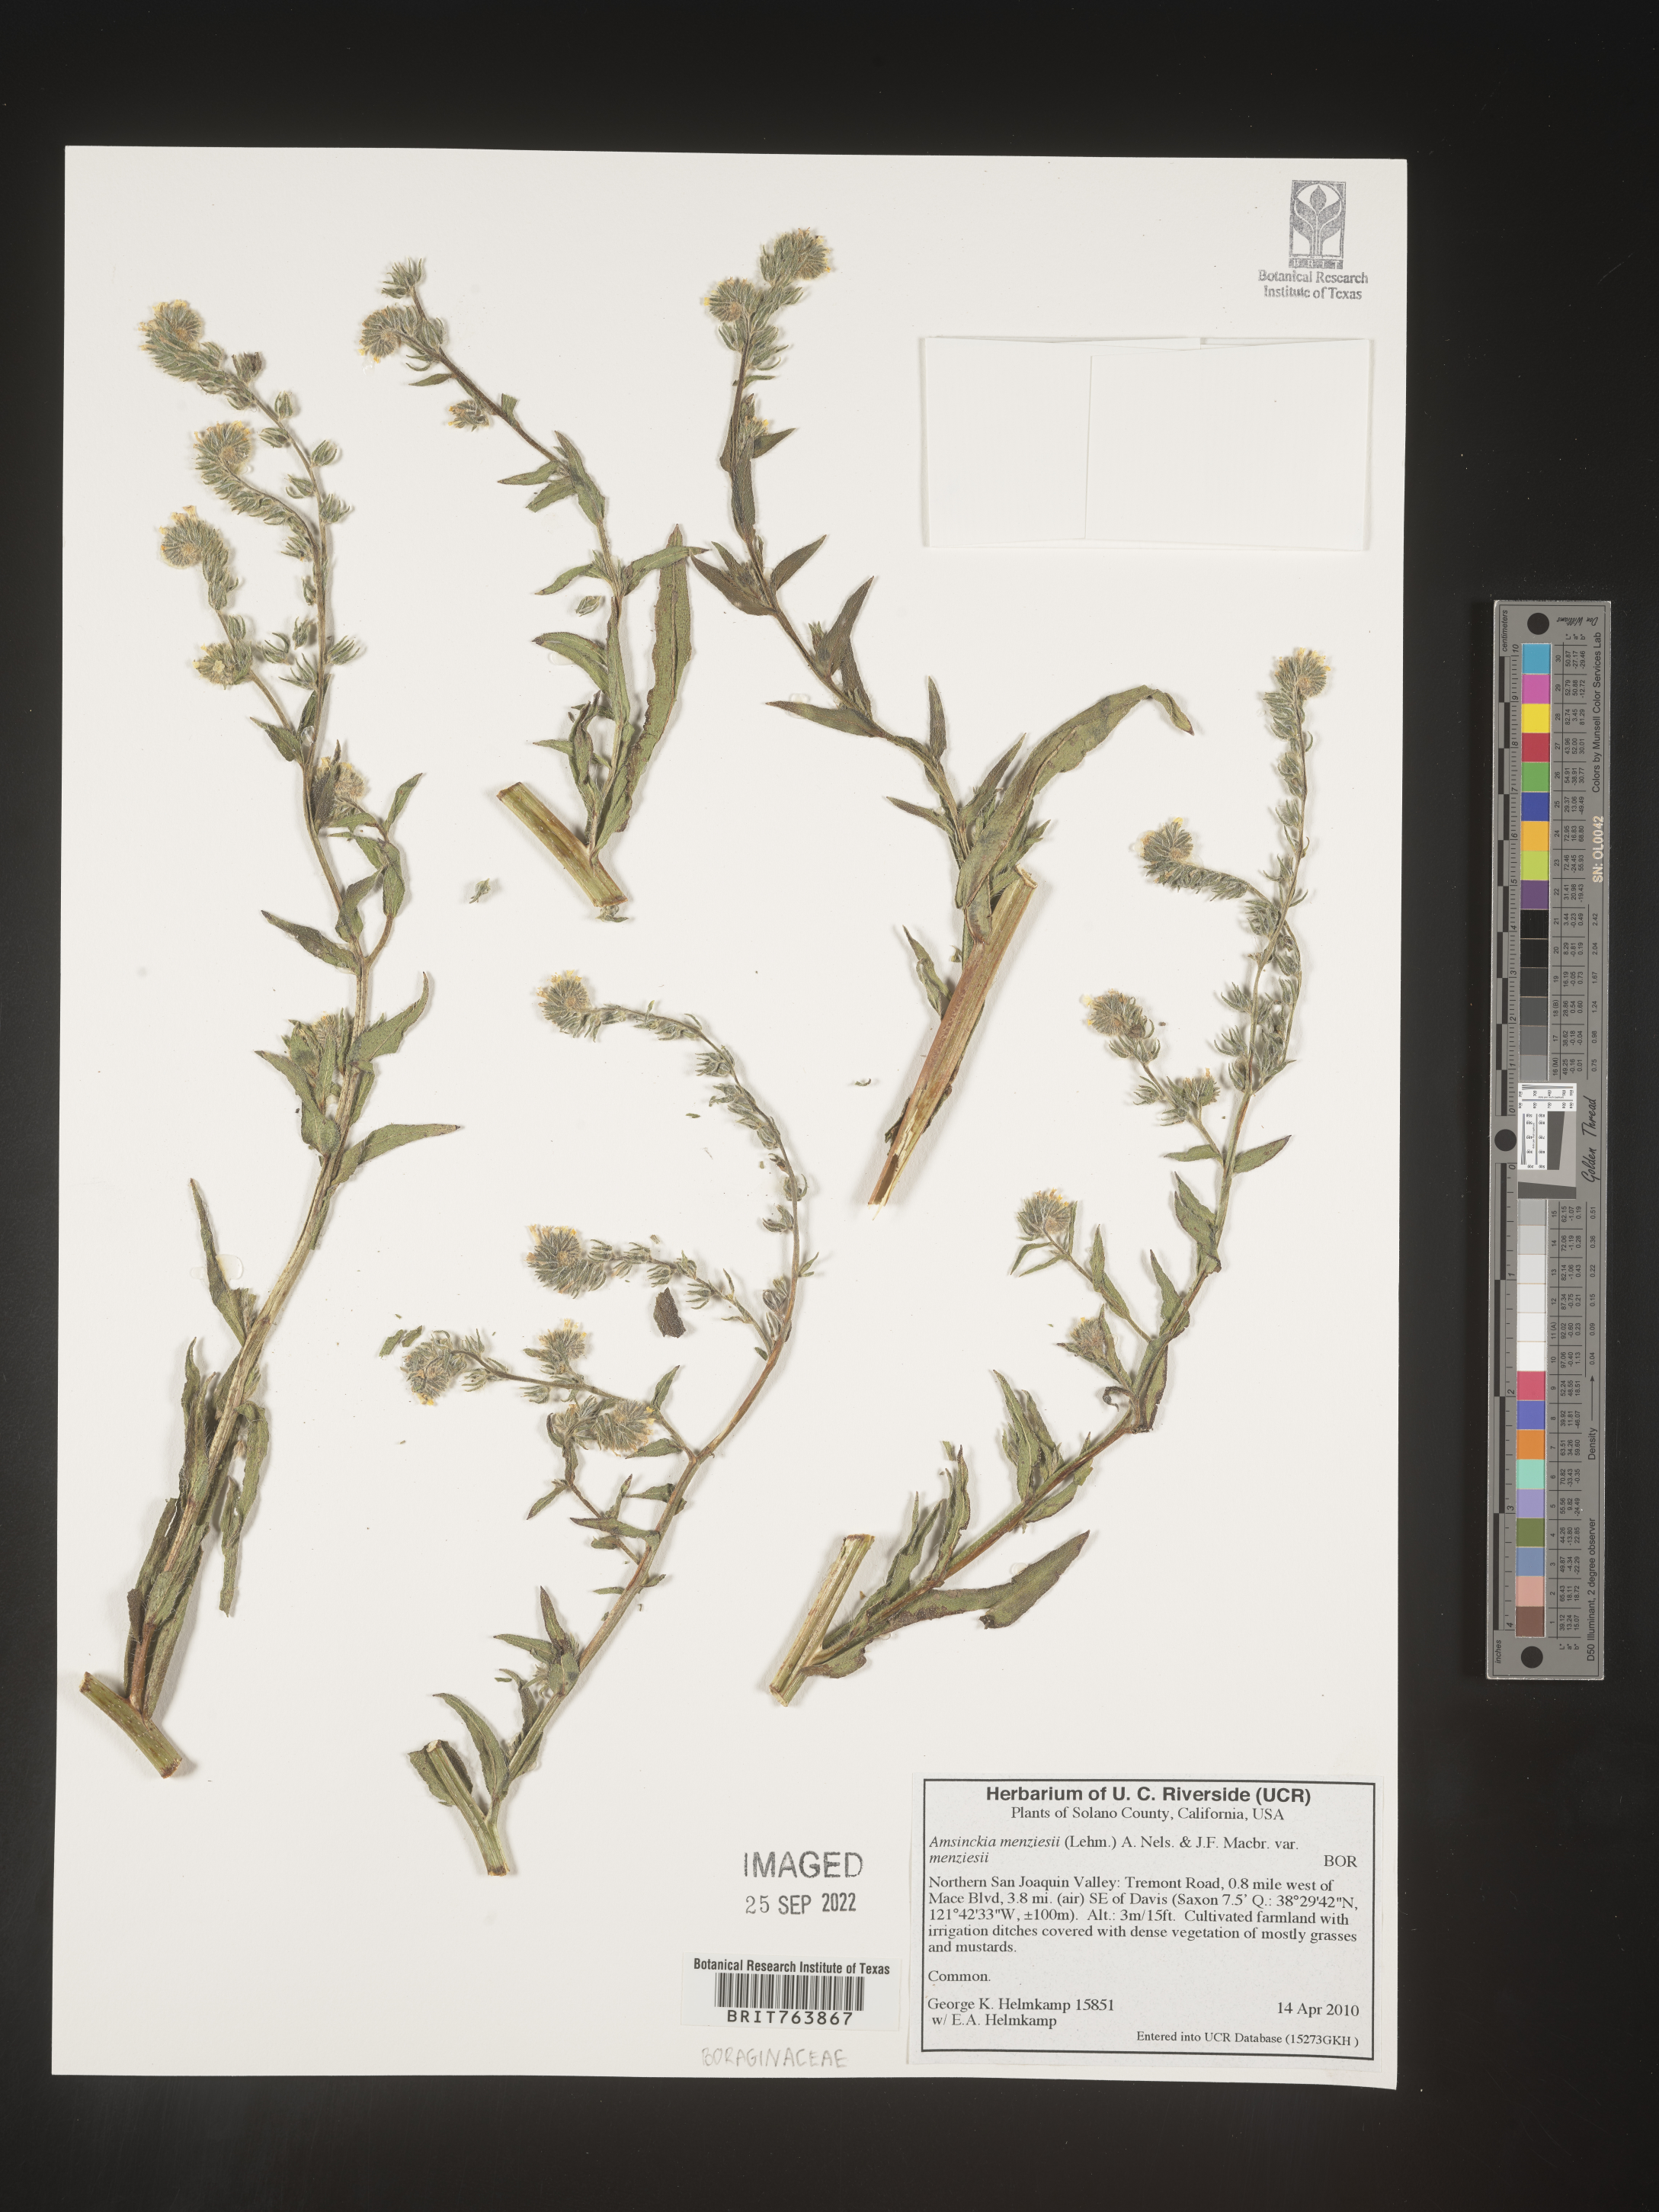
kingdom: Plantae
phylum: Tracheophyta
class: Magnoliopsida
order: Boraginales
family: Boraginaceae
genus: Amsinckia
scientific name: Amsinckia menziesii
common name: Menzies' fiddleneck
